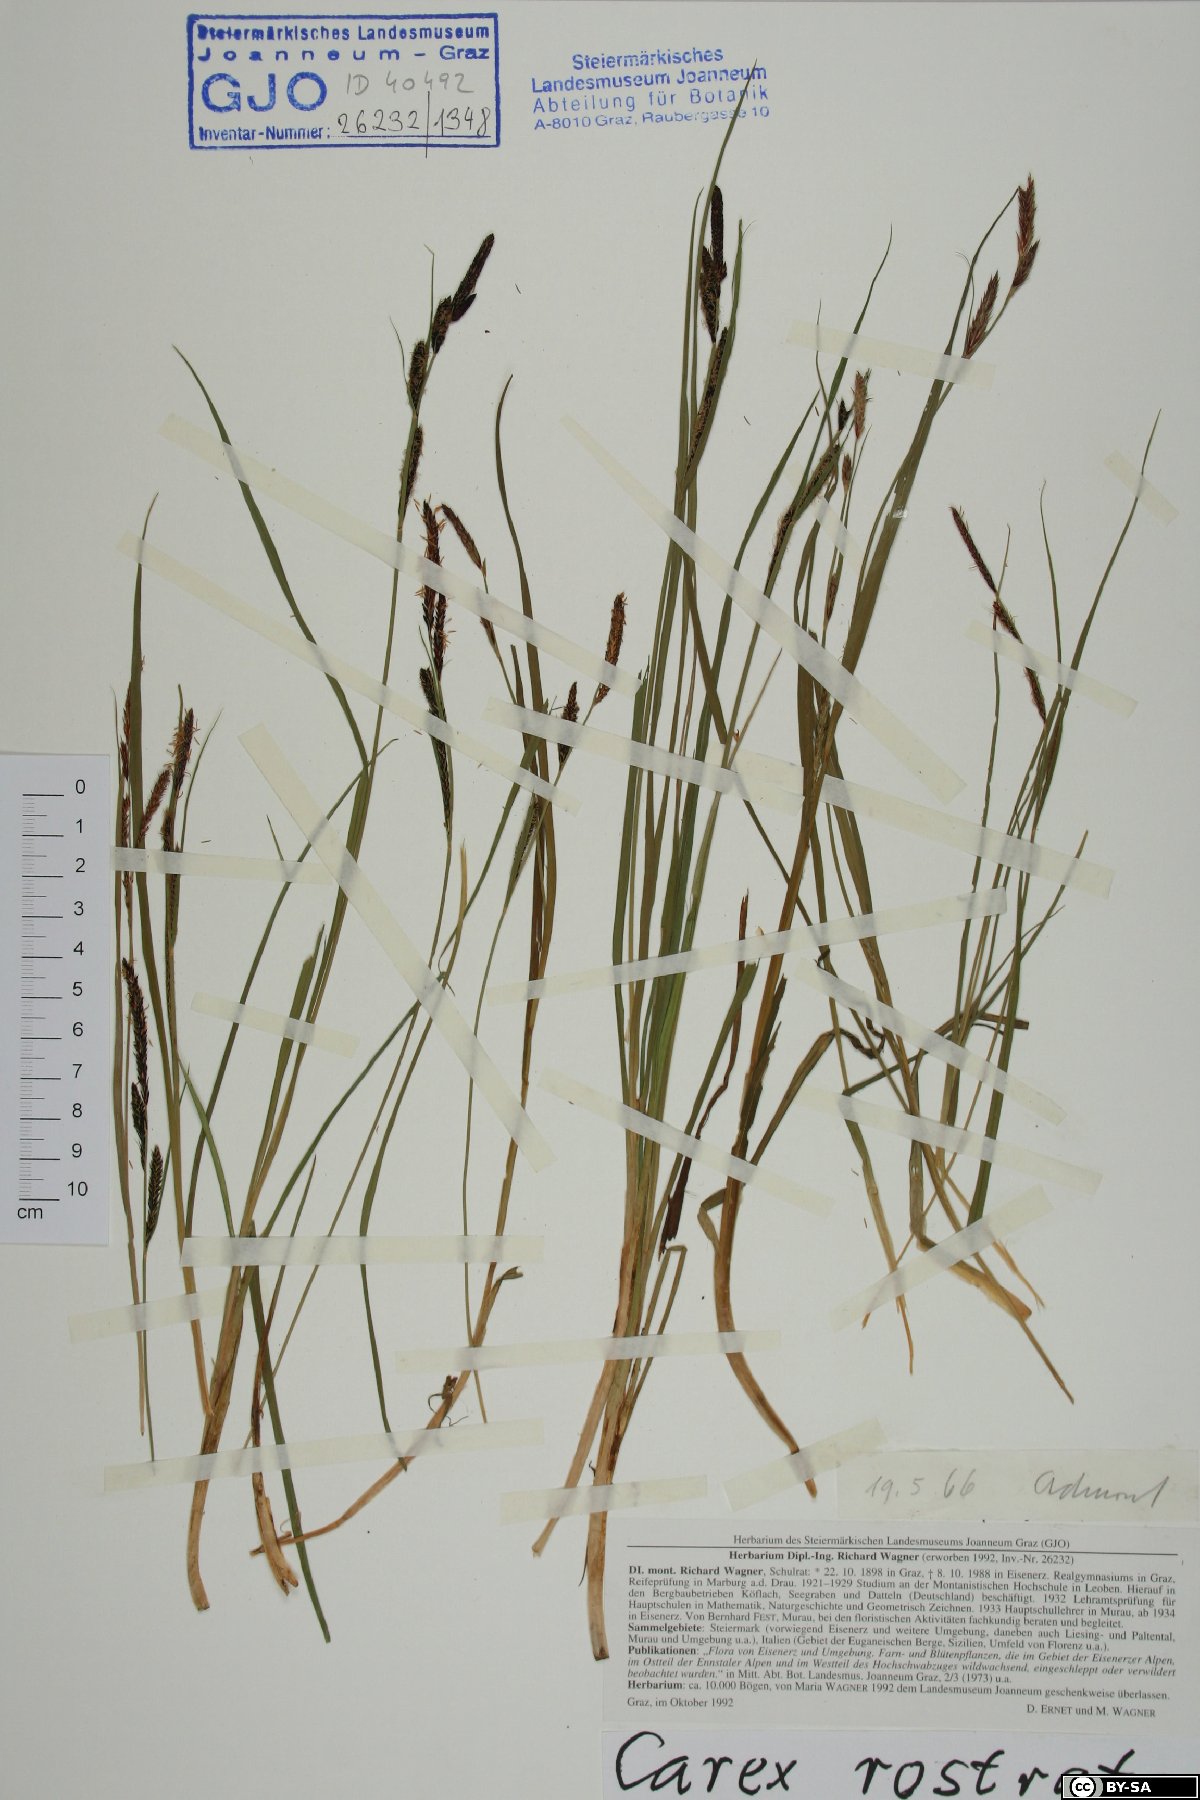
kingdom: Plantae
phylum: Tracheophyta
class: Liliopsida
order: Poales
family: Cyperaceae
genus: Carex
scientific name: Carex rostrata
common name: Bottle sedge
